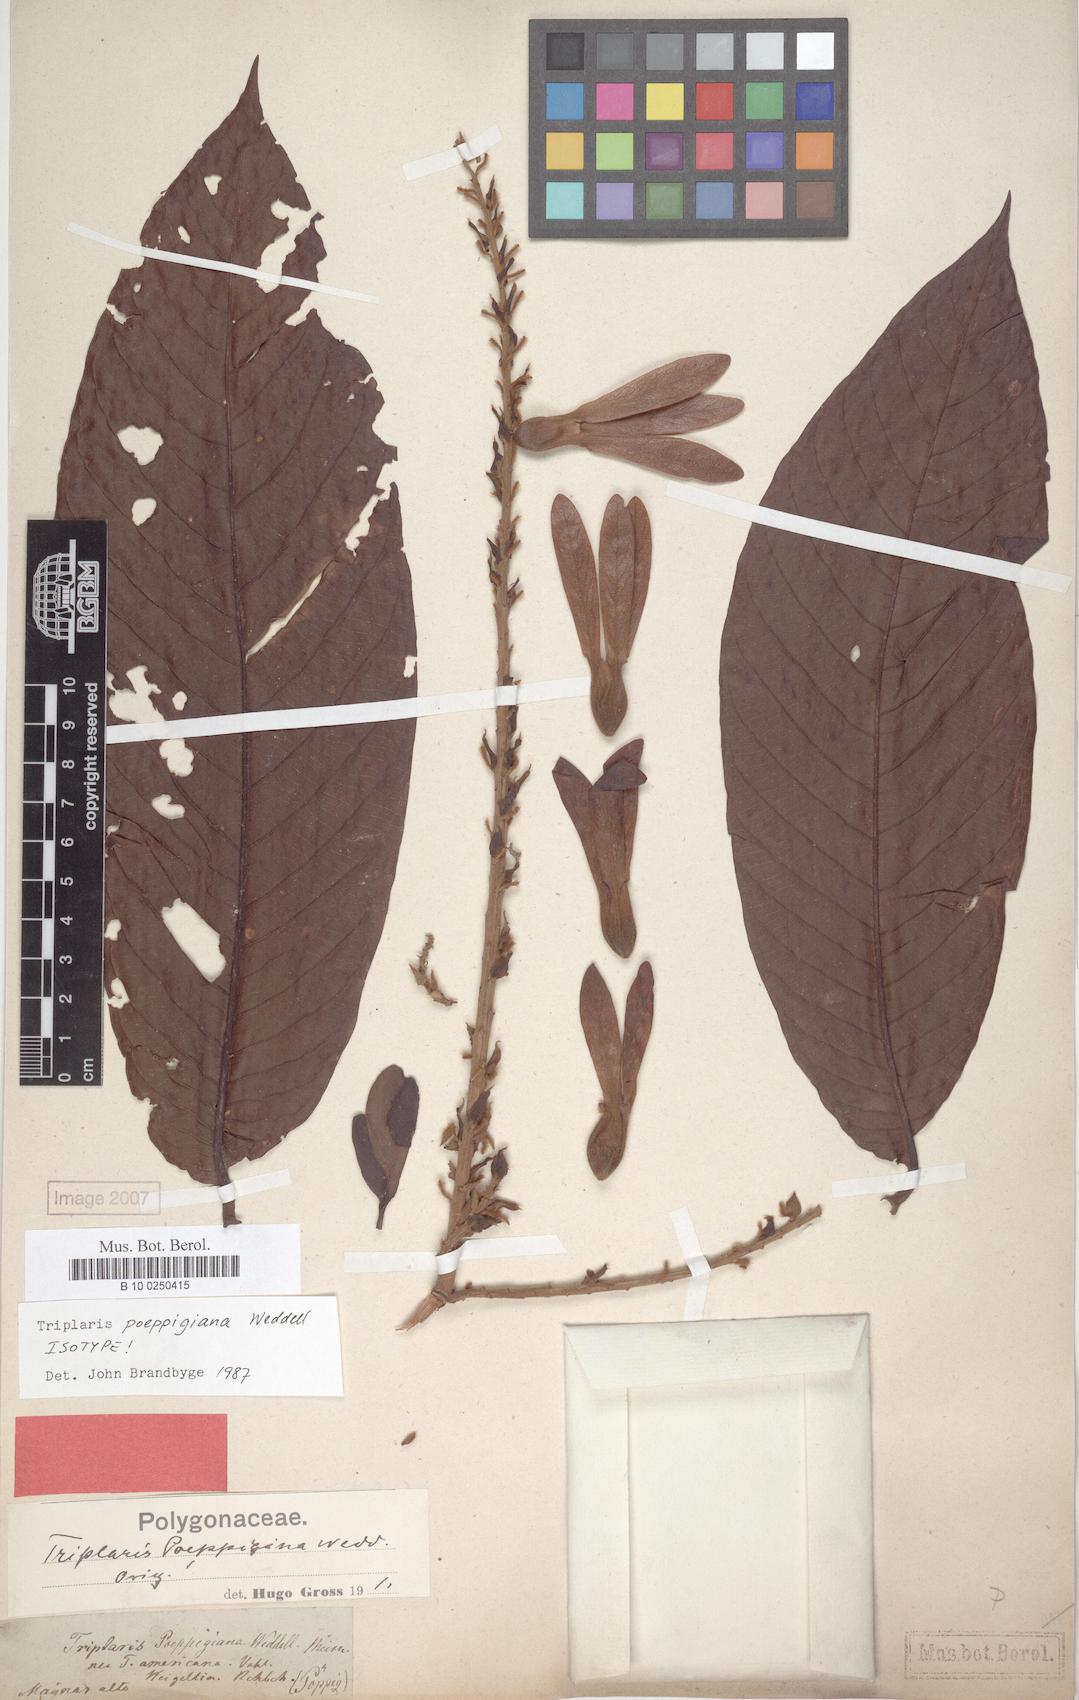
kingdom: Plantae
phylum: Tracheophyta
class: Magnoliopsida
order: Caryophyllales
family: Polygonaceae
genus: Triplaris
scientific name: Triplaris poeppigiana
